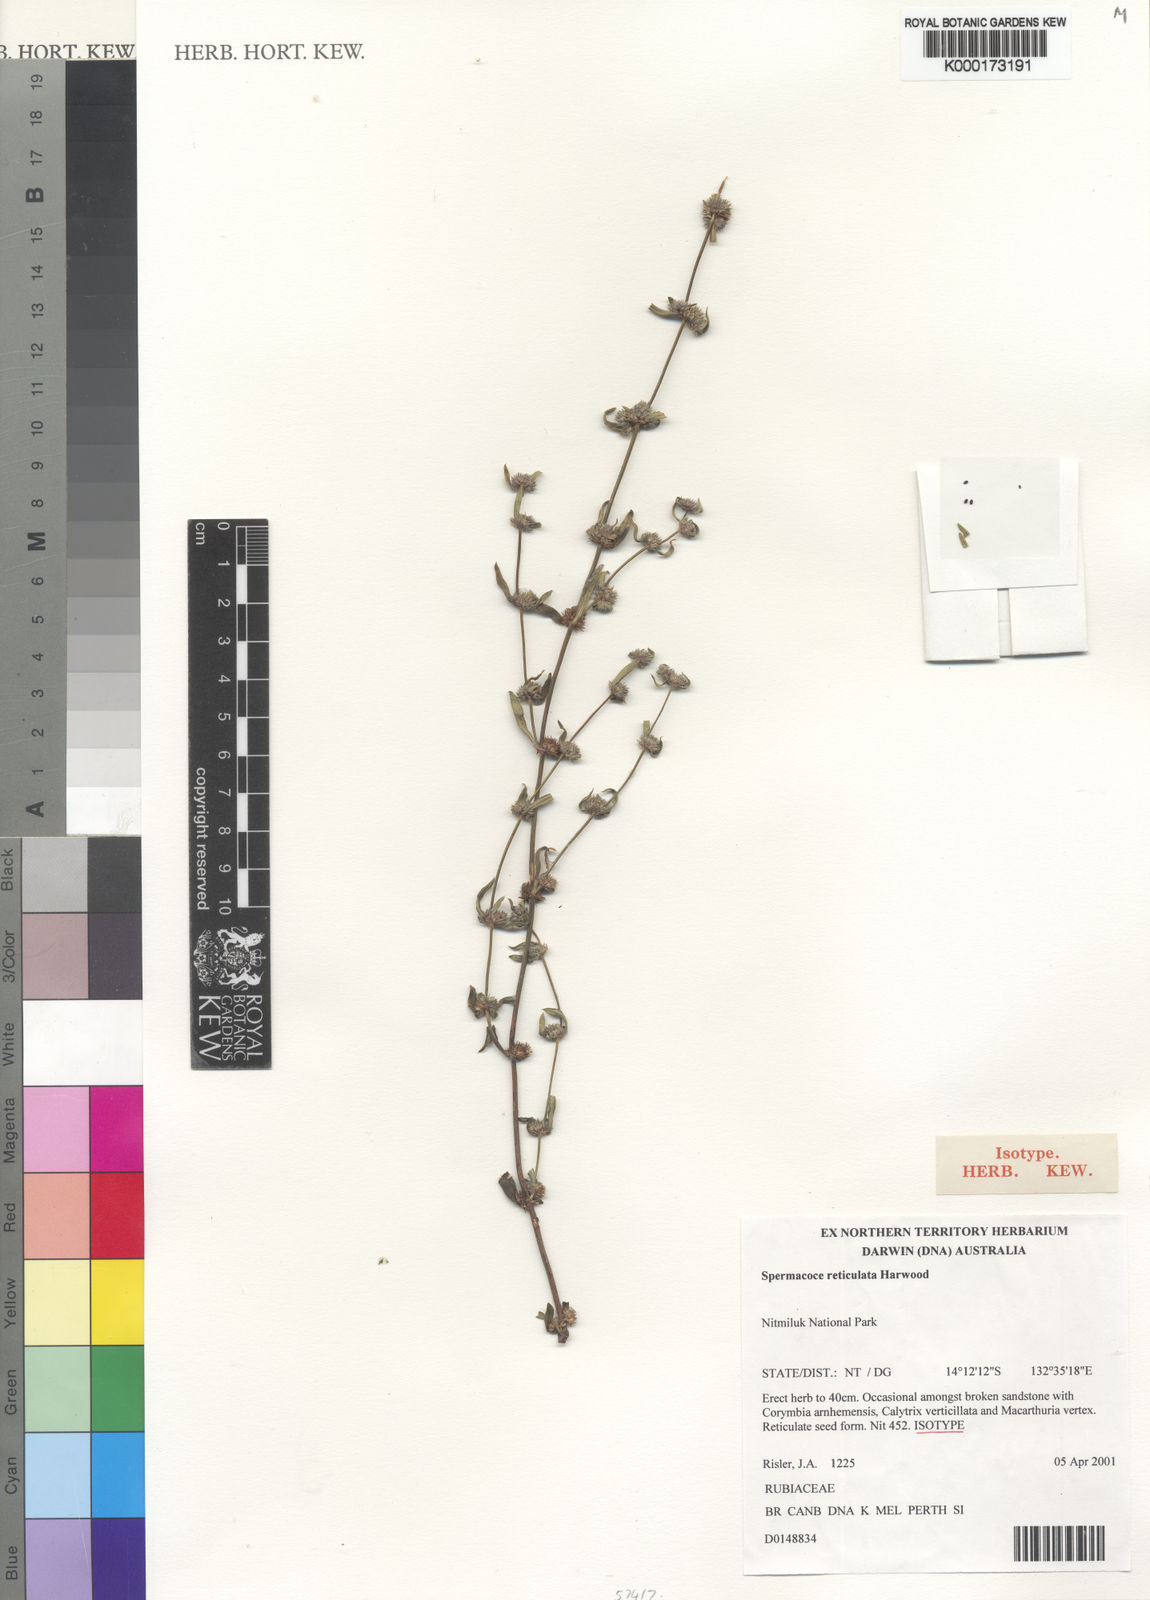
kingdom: Plantae
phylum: Tracheophyta
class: Magnoliopsida
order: Gentianales
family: Rubiaceae
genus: Spermacoce
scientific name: Spermacoce reticulata
